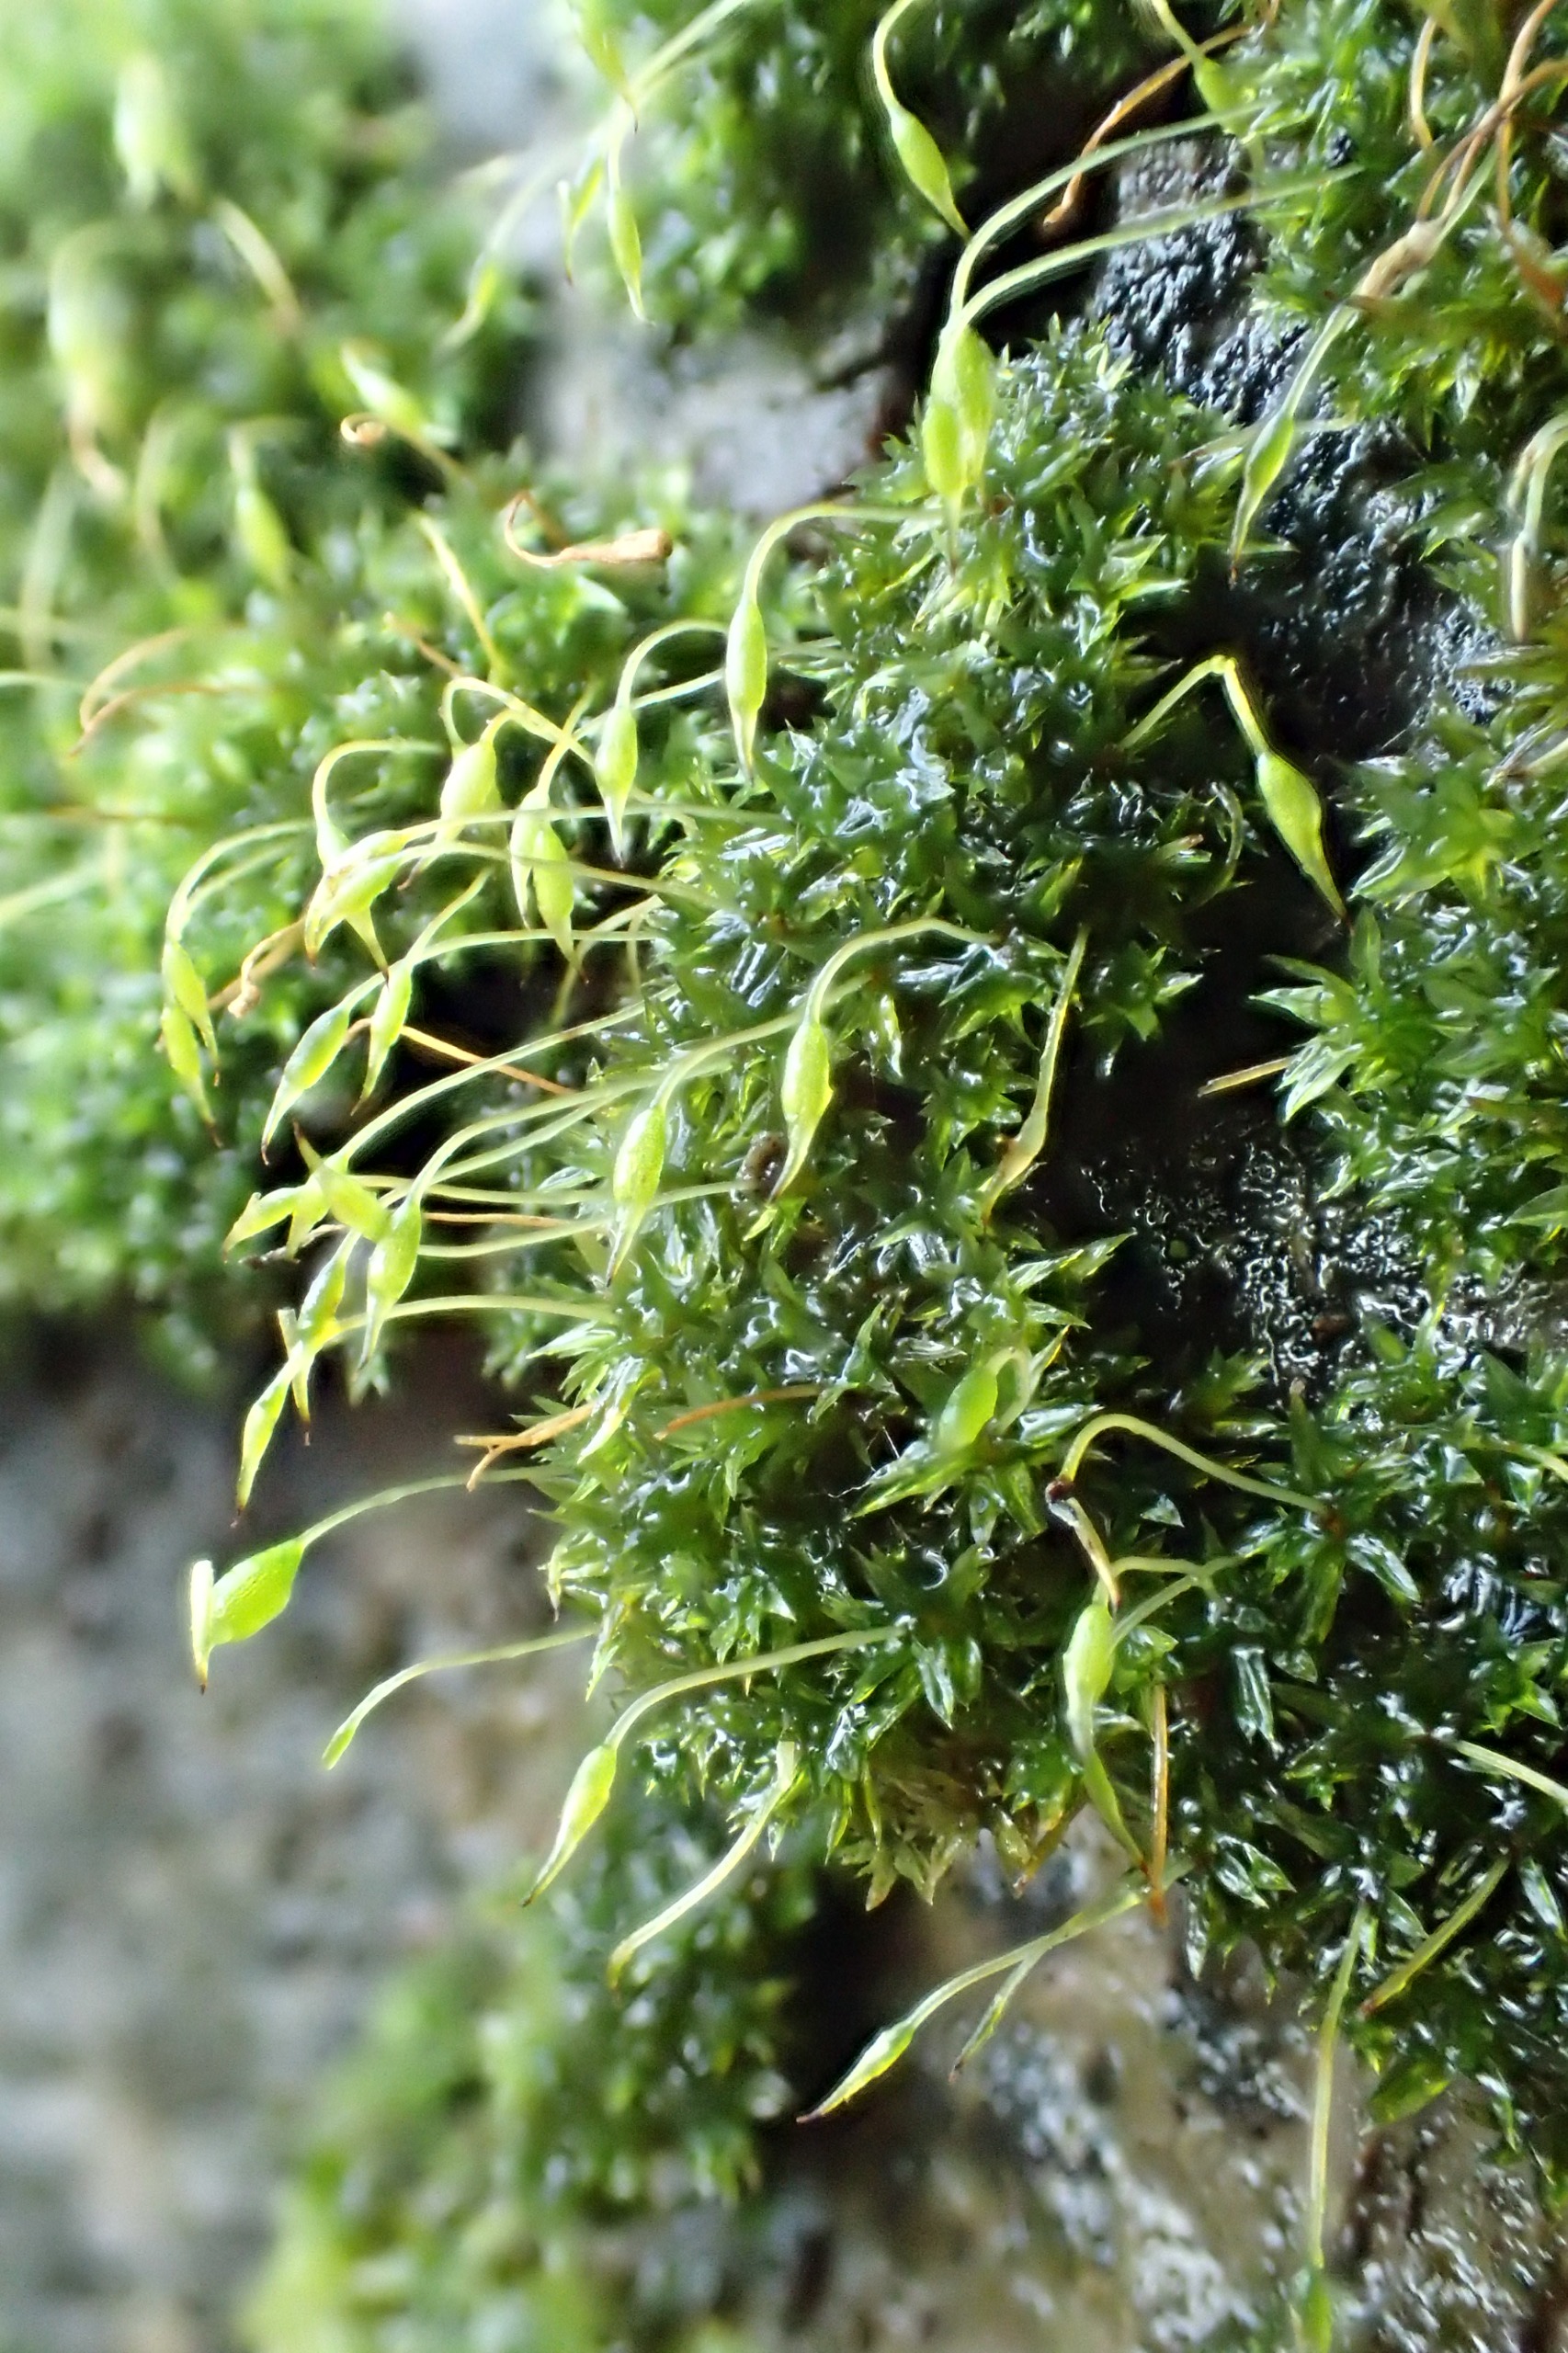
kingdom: Plantae
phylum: Bryophyta
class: Bryopsida
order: Orthotrichales
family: Orthotrichaceae
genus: Zygodon
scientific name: Zygodon conoideus
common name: Tand-køllemos
